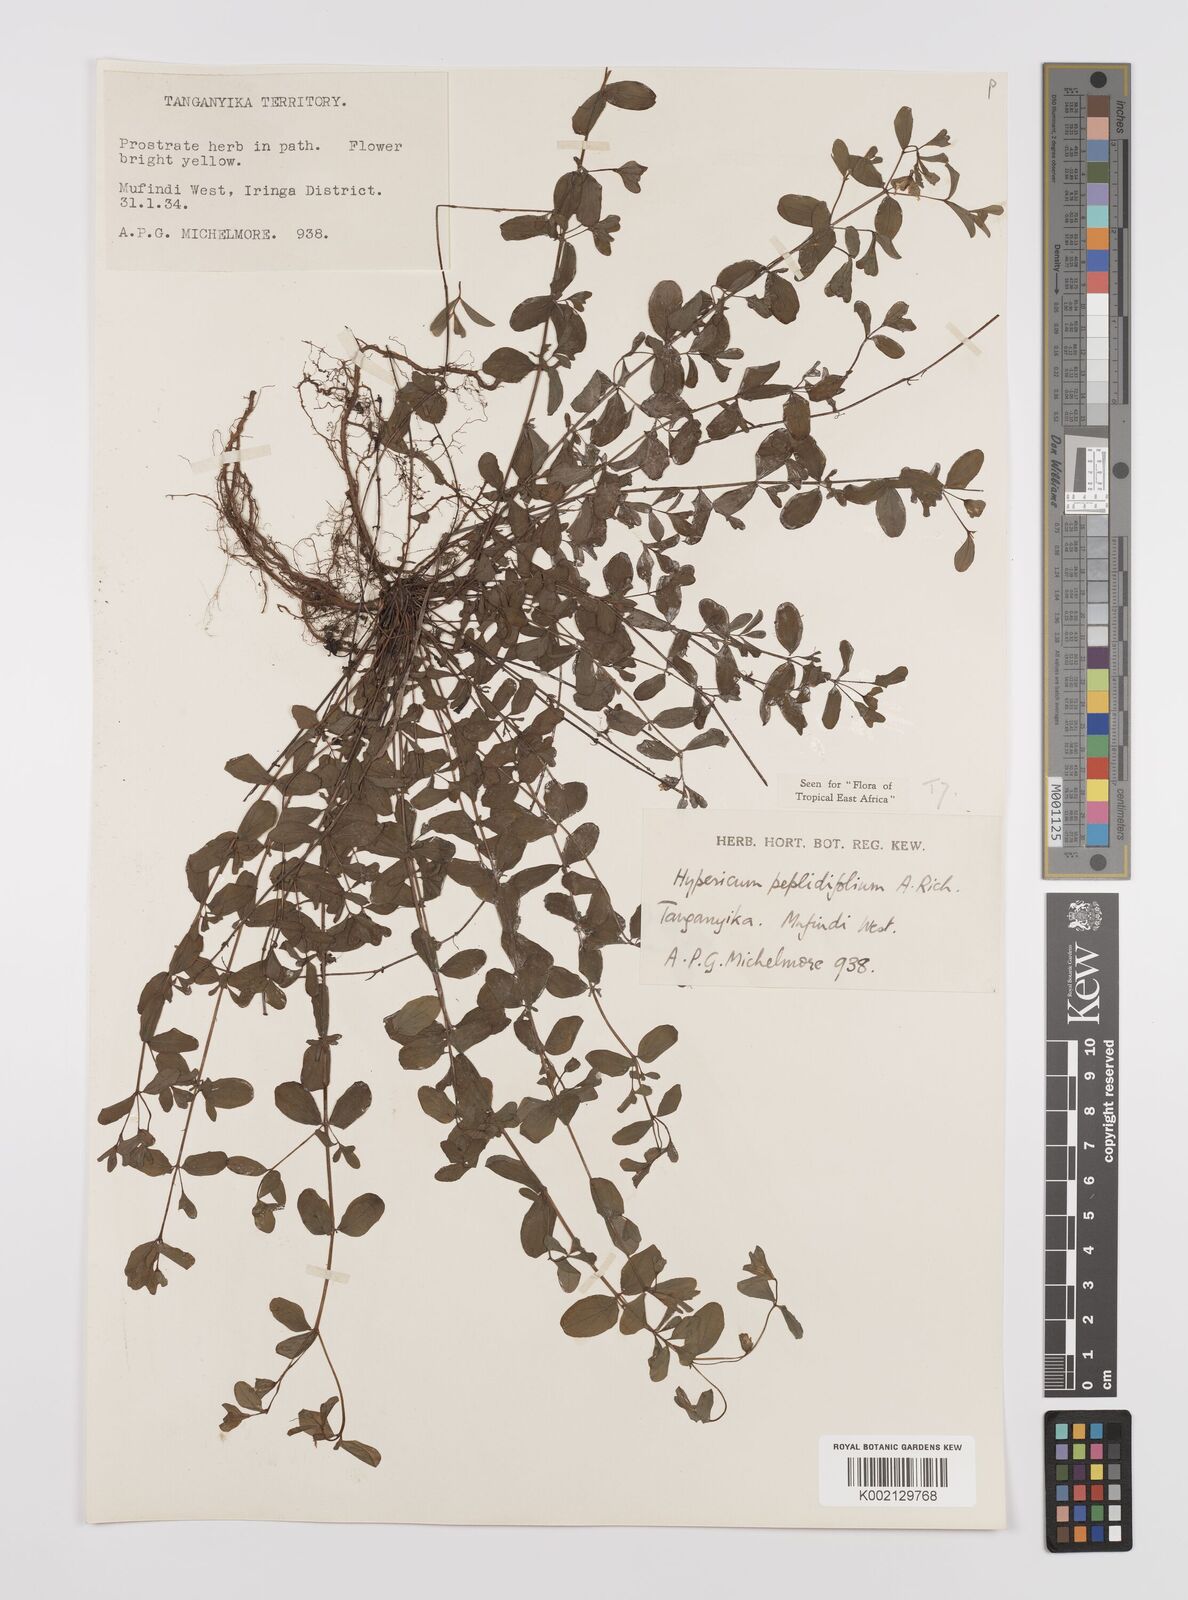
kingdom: Plantae
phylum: Tracheophyta
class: Magnoliopsida
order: Malpighiales
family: Hypericaceae
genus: Hypericum
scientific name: Hypericum peplidifolium
